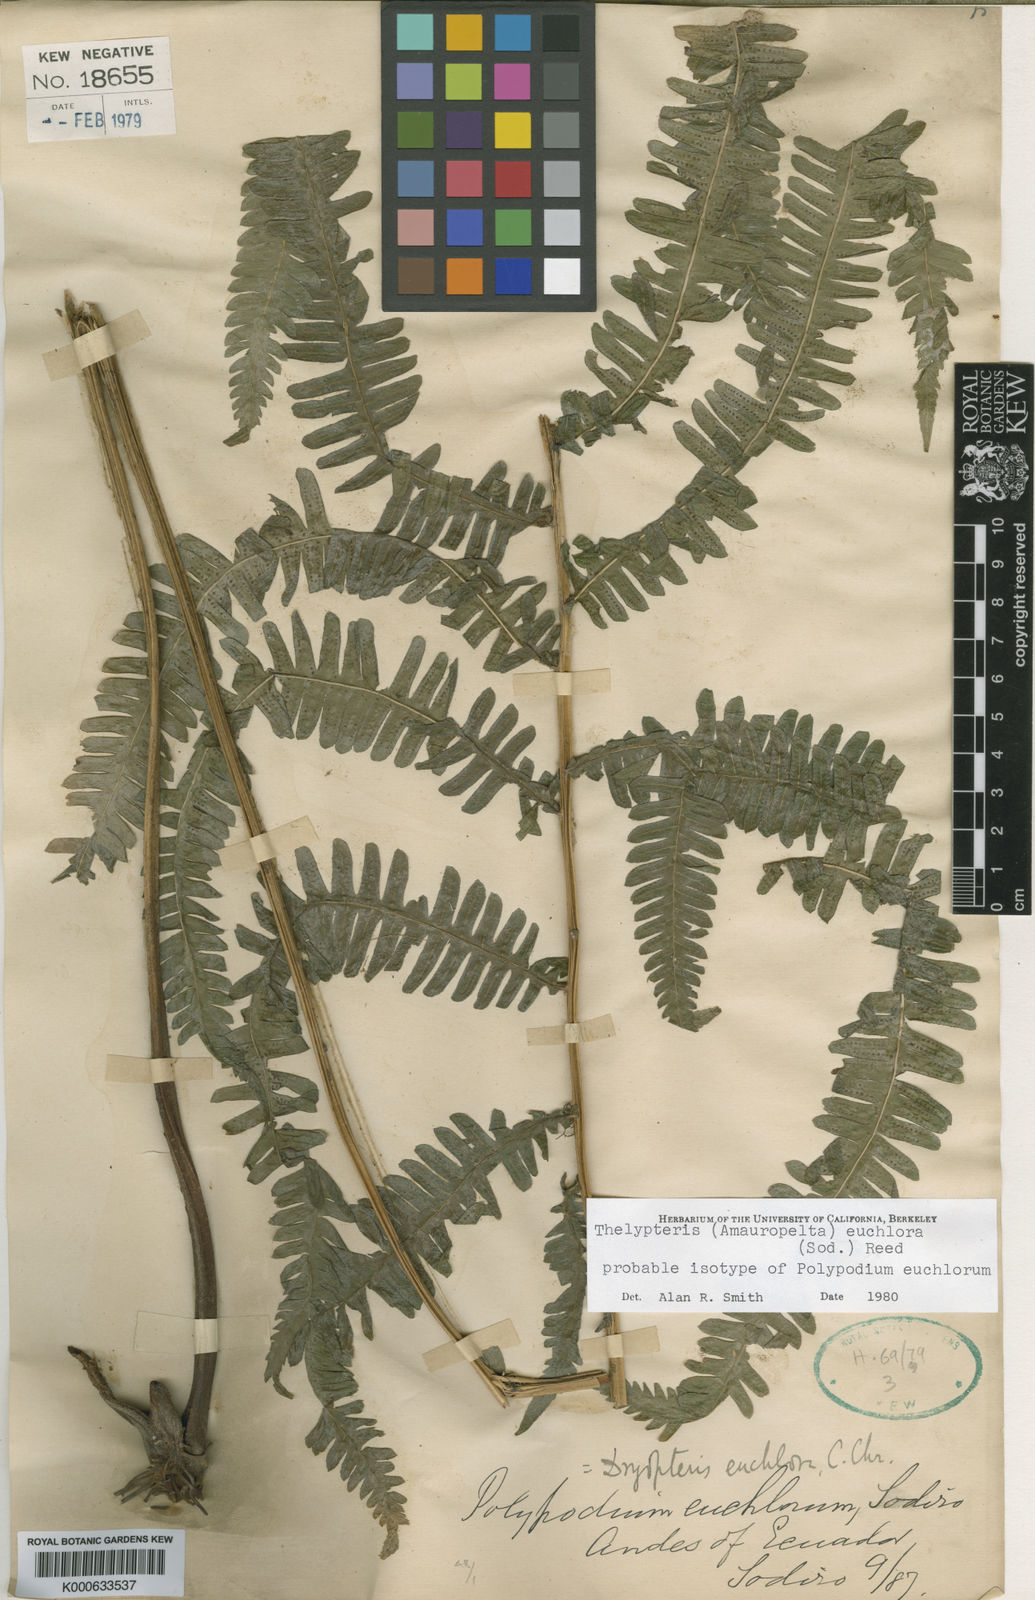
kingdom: Plantae
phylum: Tracheophyta
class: Polypodiopsida
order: Polypodiales
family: Thelypteridaceae
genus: Amauropelta
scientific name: Amauropelta euchlora
